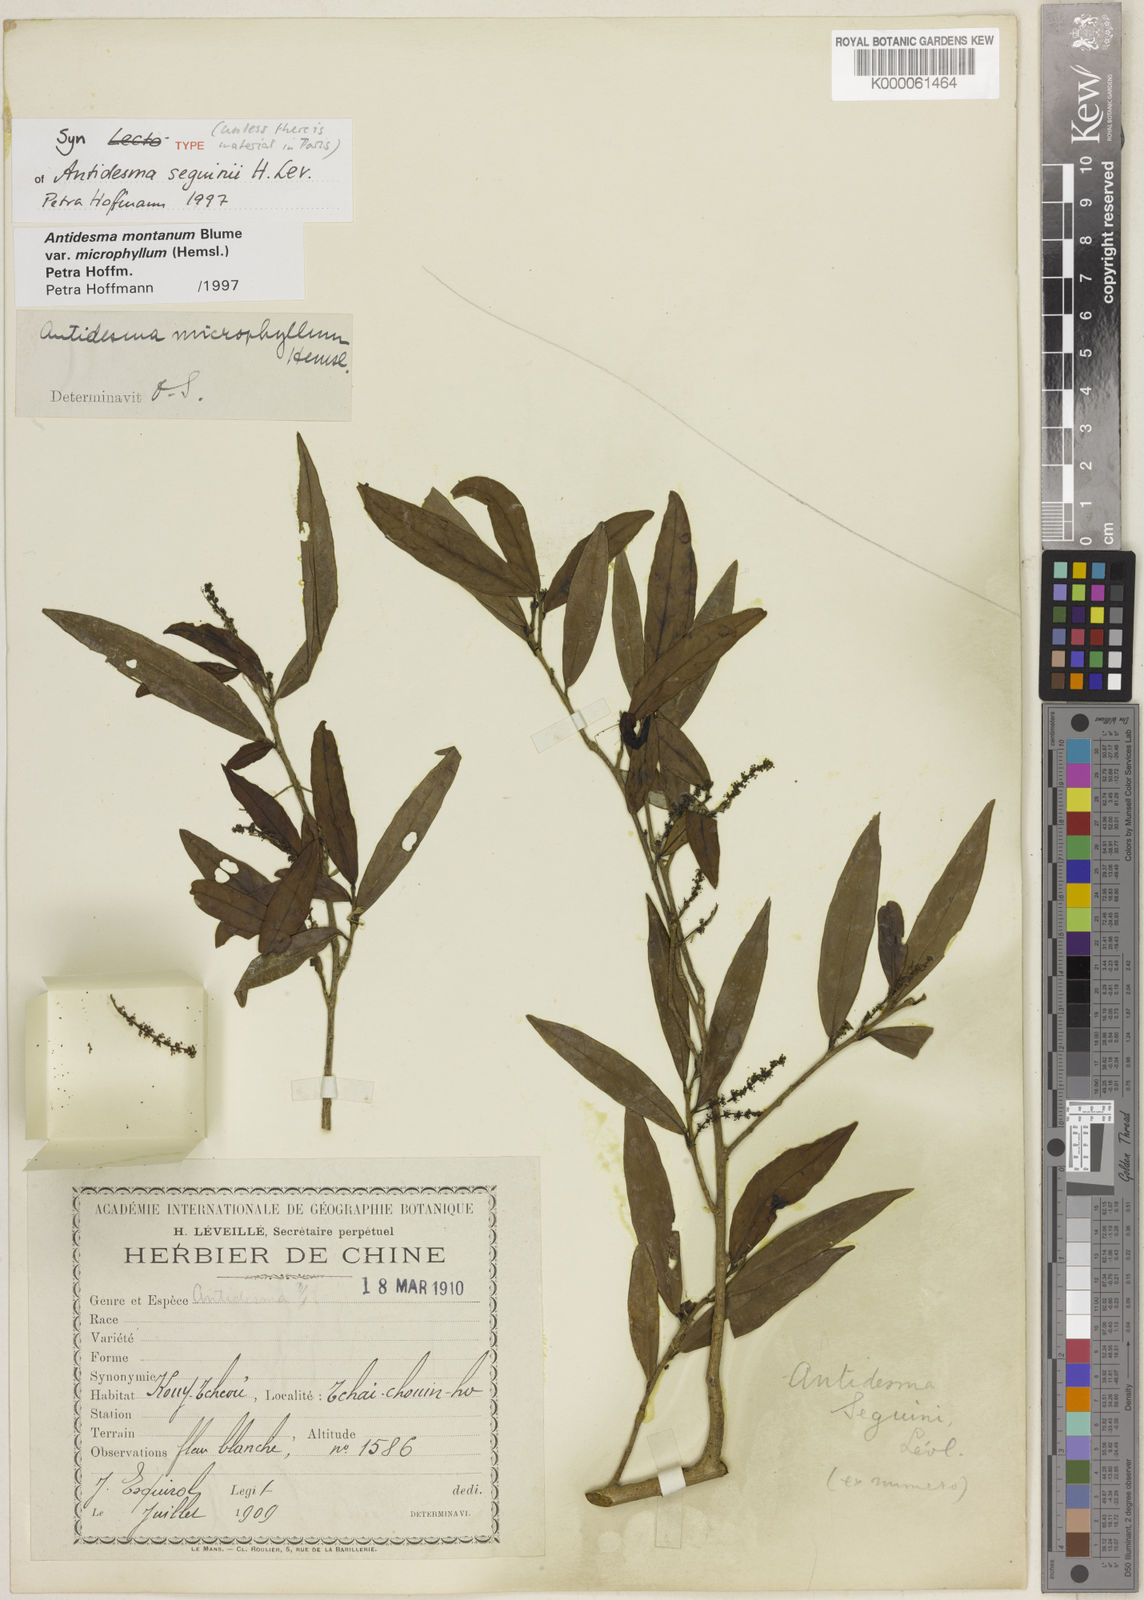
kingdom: Plantae
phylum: Tracheophyta
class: Magnoliopsida
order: Malpighiales
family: Phyllanthaceae
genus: Antidesma
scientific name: Antidesma montanum
